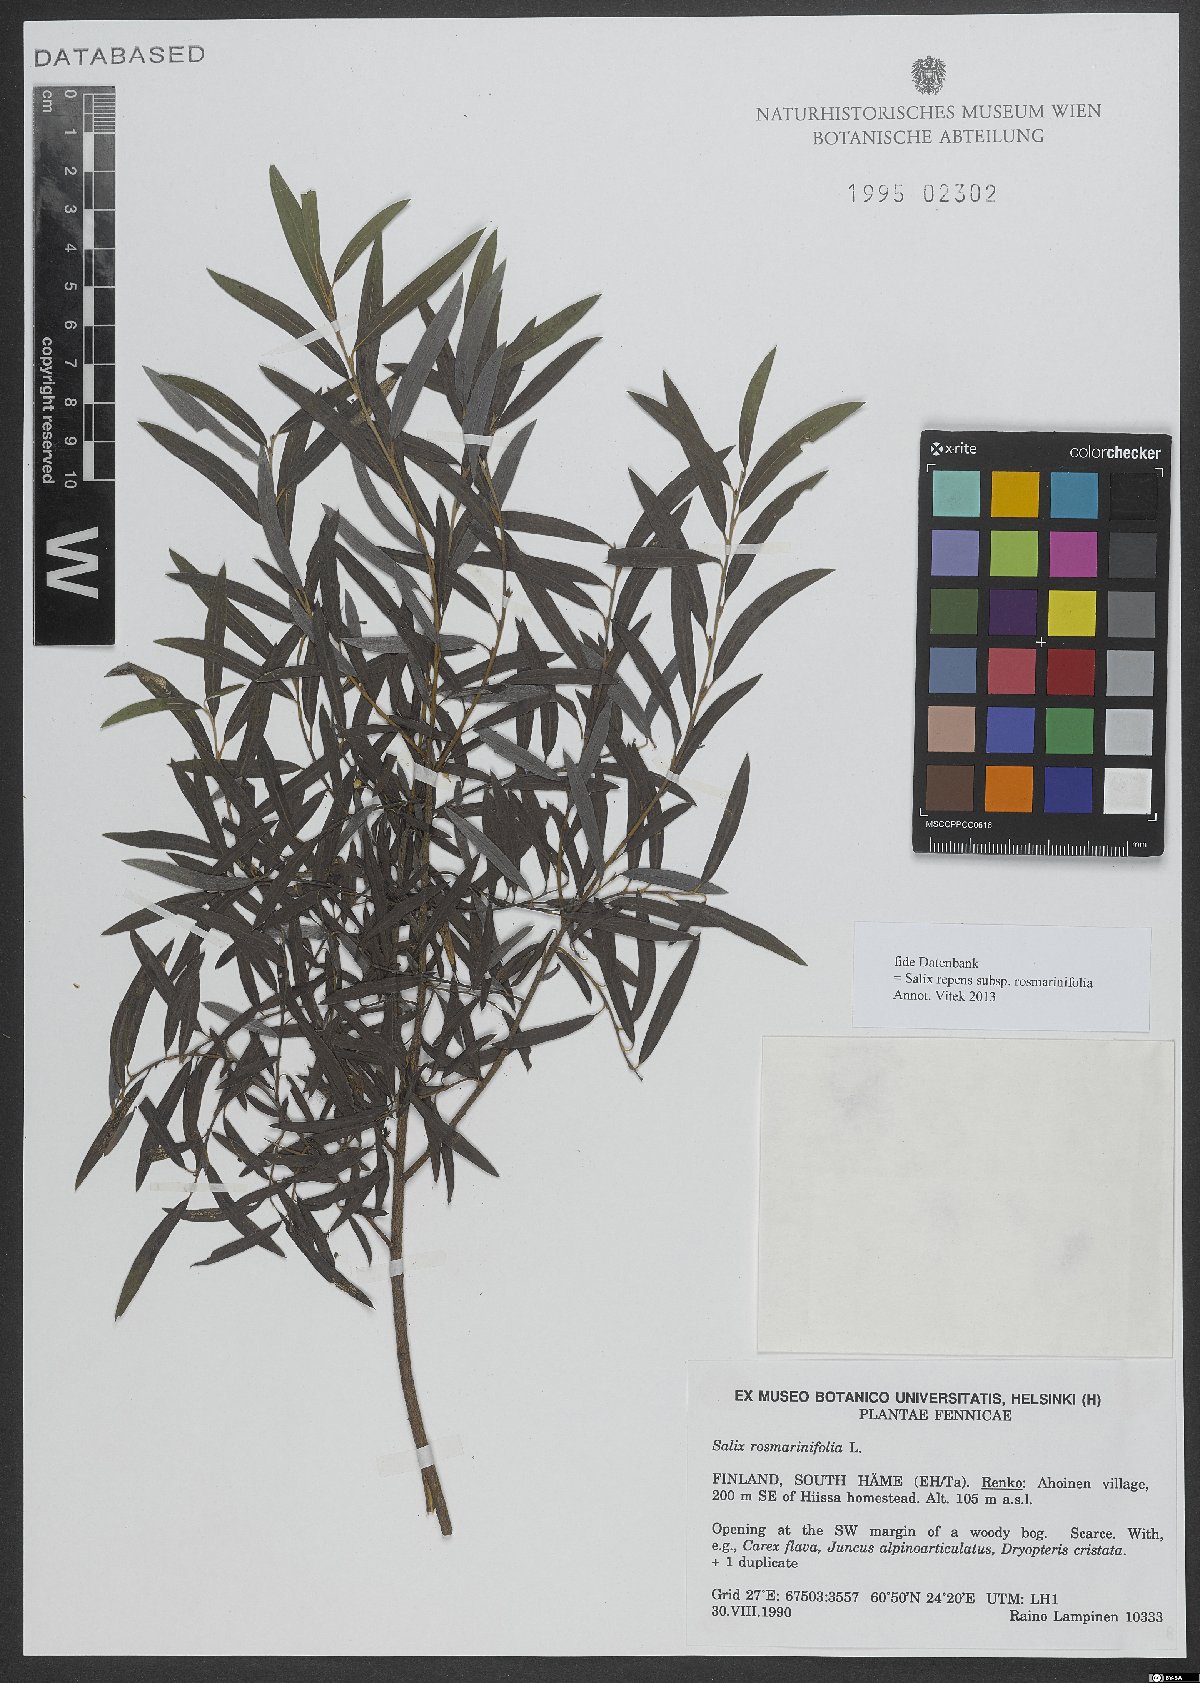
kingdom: Plantae
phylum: Tracheophyta
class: Magnoliopsida
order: Malpighiales
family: Salicaceae
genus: Salix
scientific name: Salix repens
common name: Creeping willow
